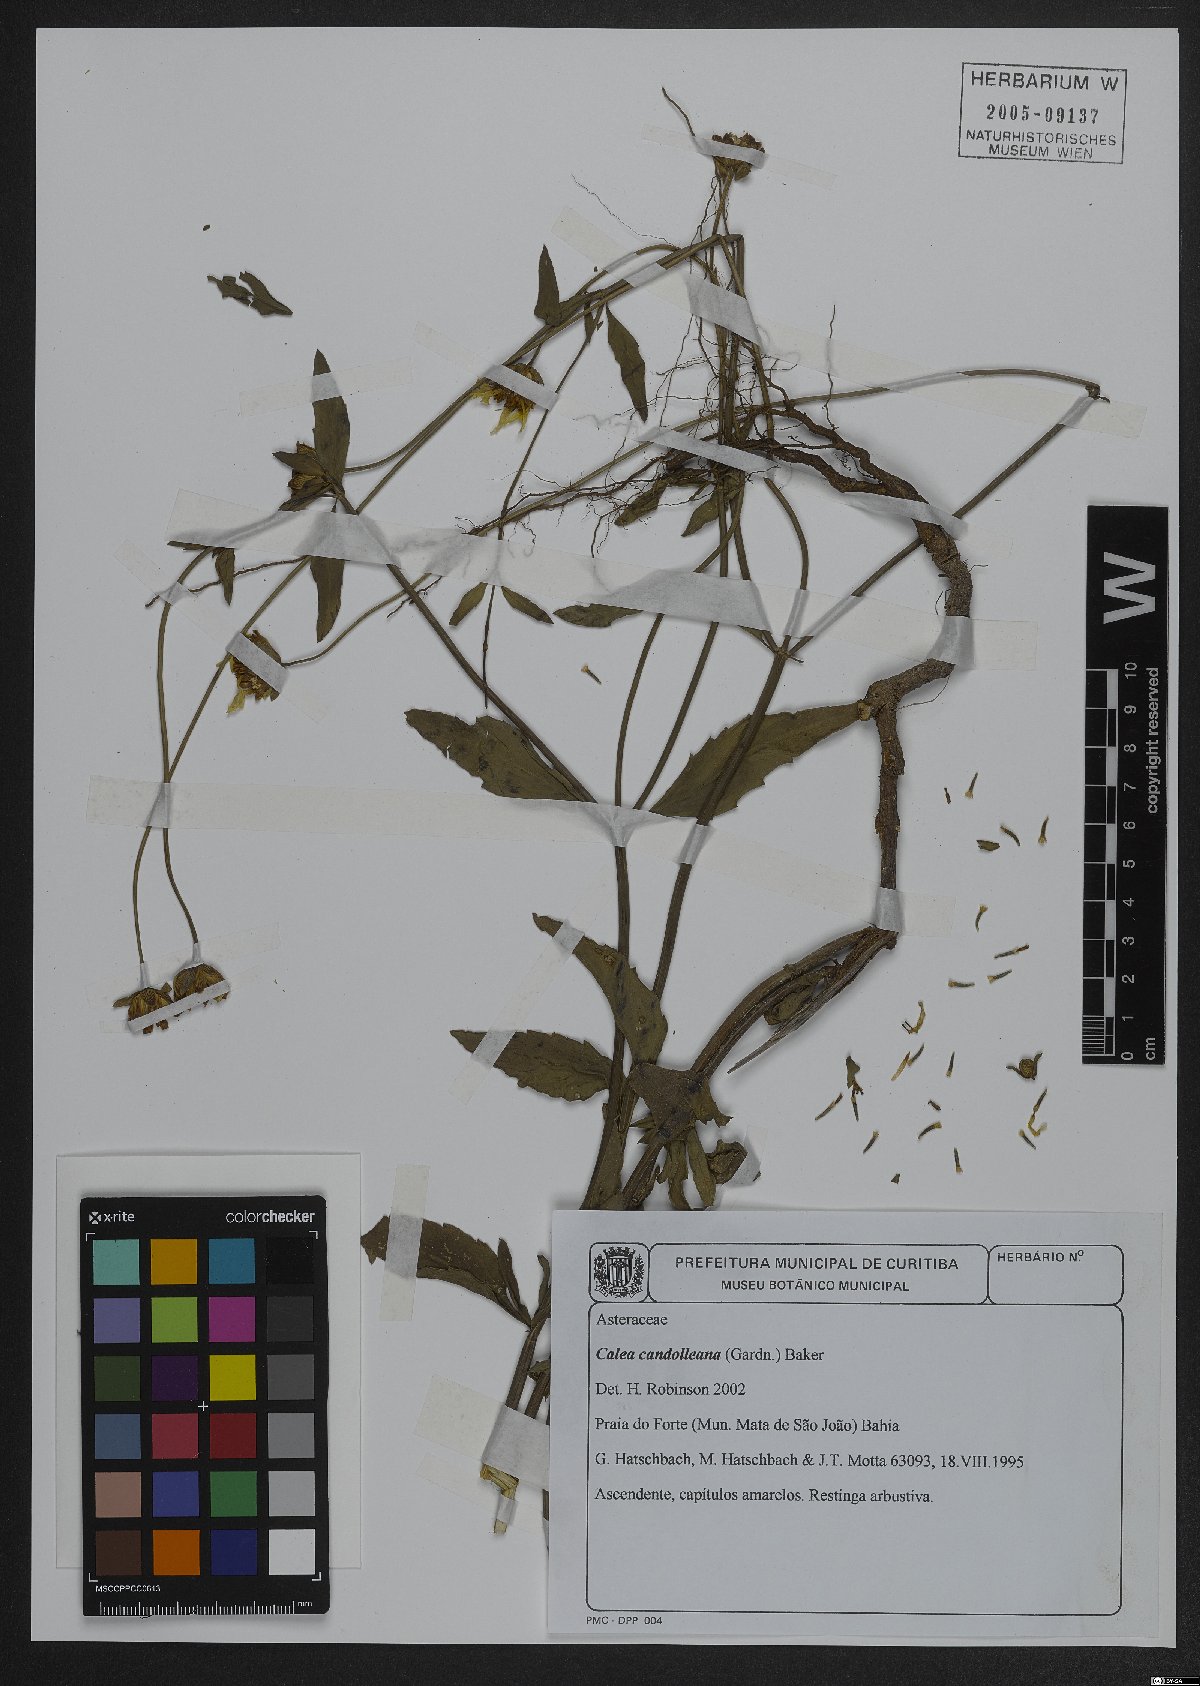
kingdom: Plantae
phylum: Tracheophyta
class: Magnoliopsida
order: Asterales
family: Asteraceae
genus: Calea
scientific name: Calea candolleana
